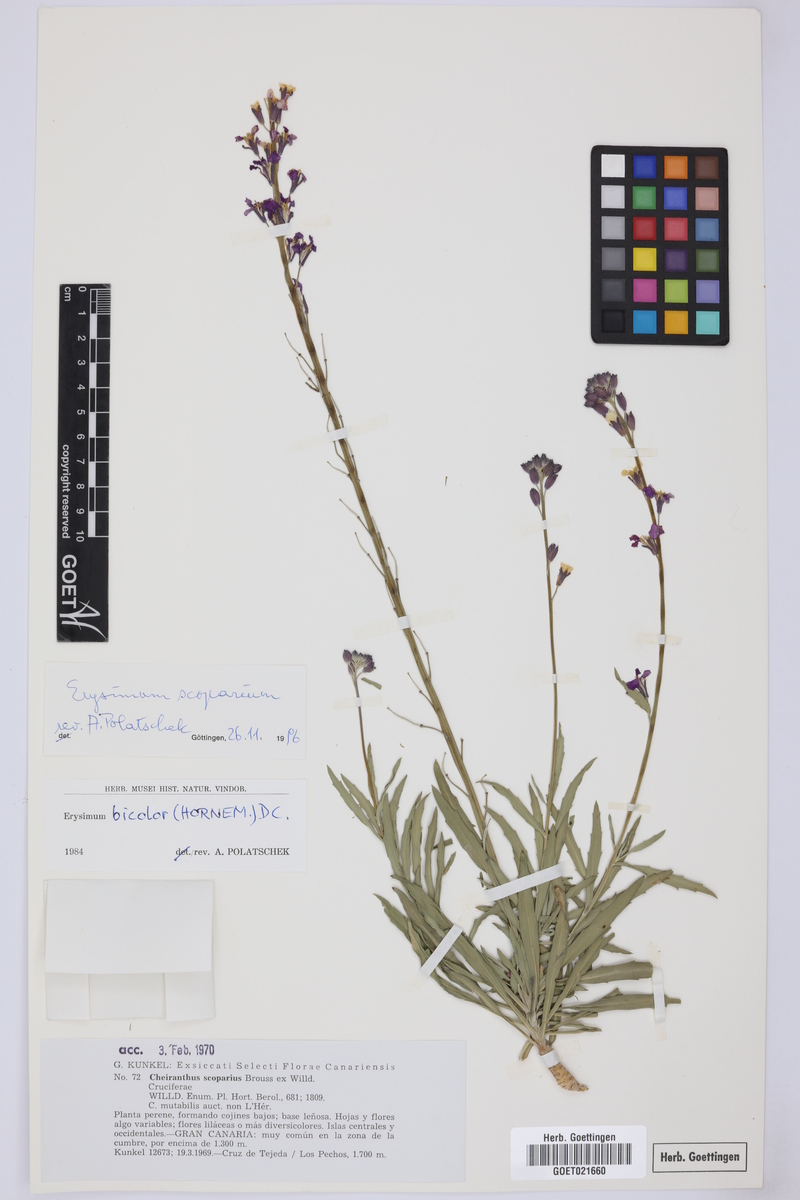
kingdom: Plantae
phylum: Tracheophyta
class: Magnoliopsida
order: Brassicales
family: Brassicaceae
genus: Erysimum
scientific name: Erysimum scoparium
